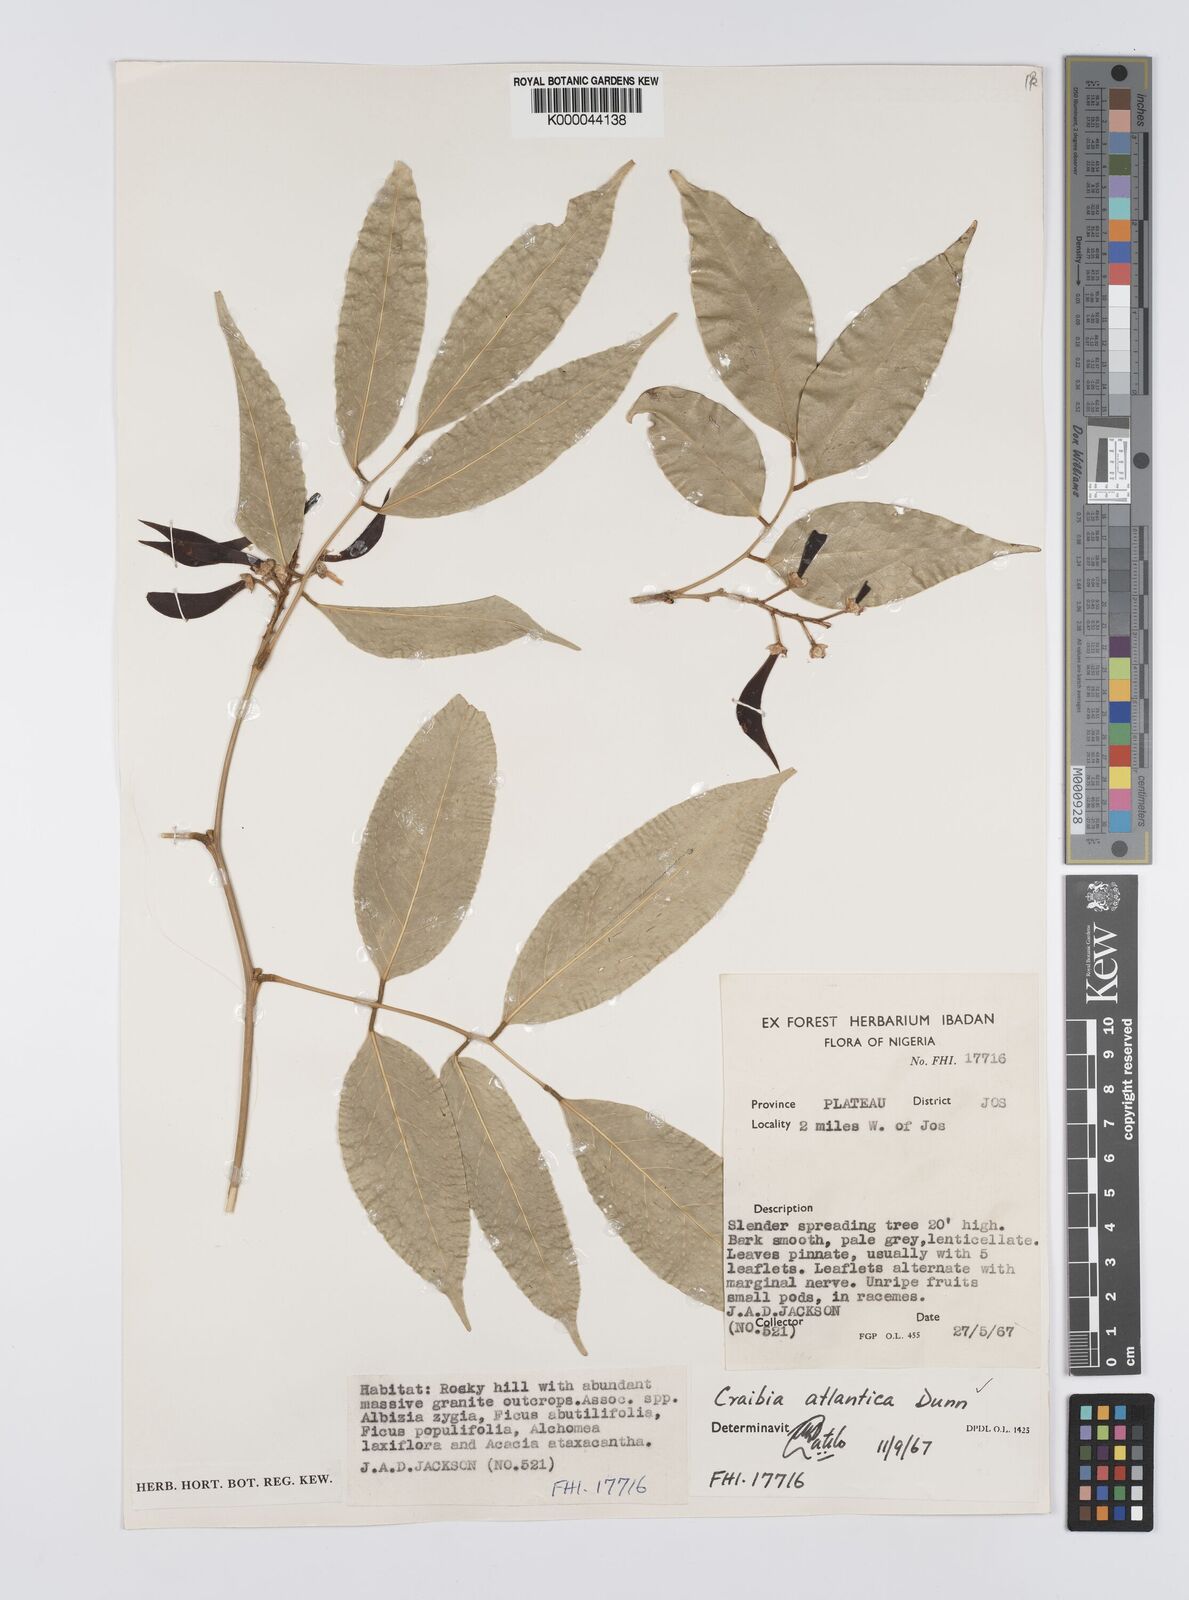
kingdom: Plantae
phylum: Tracheophyta
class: Magnoliopsida
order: Fabales
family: Fabaceae
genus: Craibia
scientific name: Craibia atlantica
